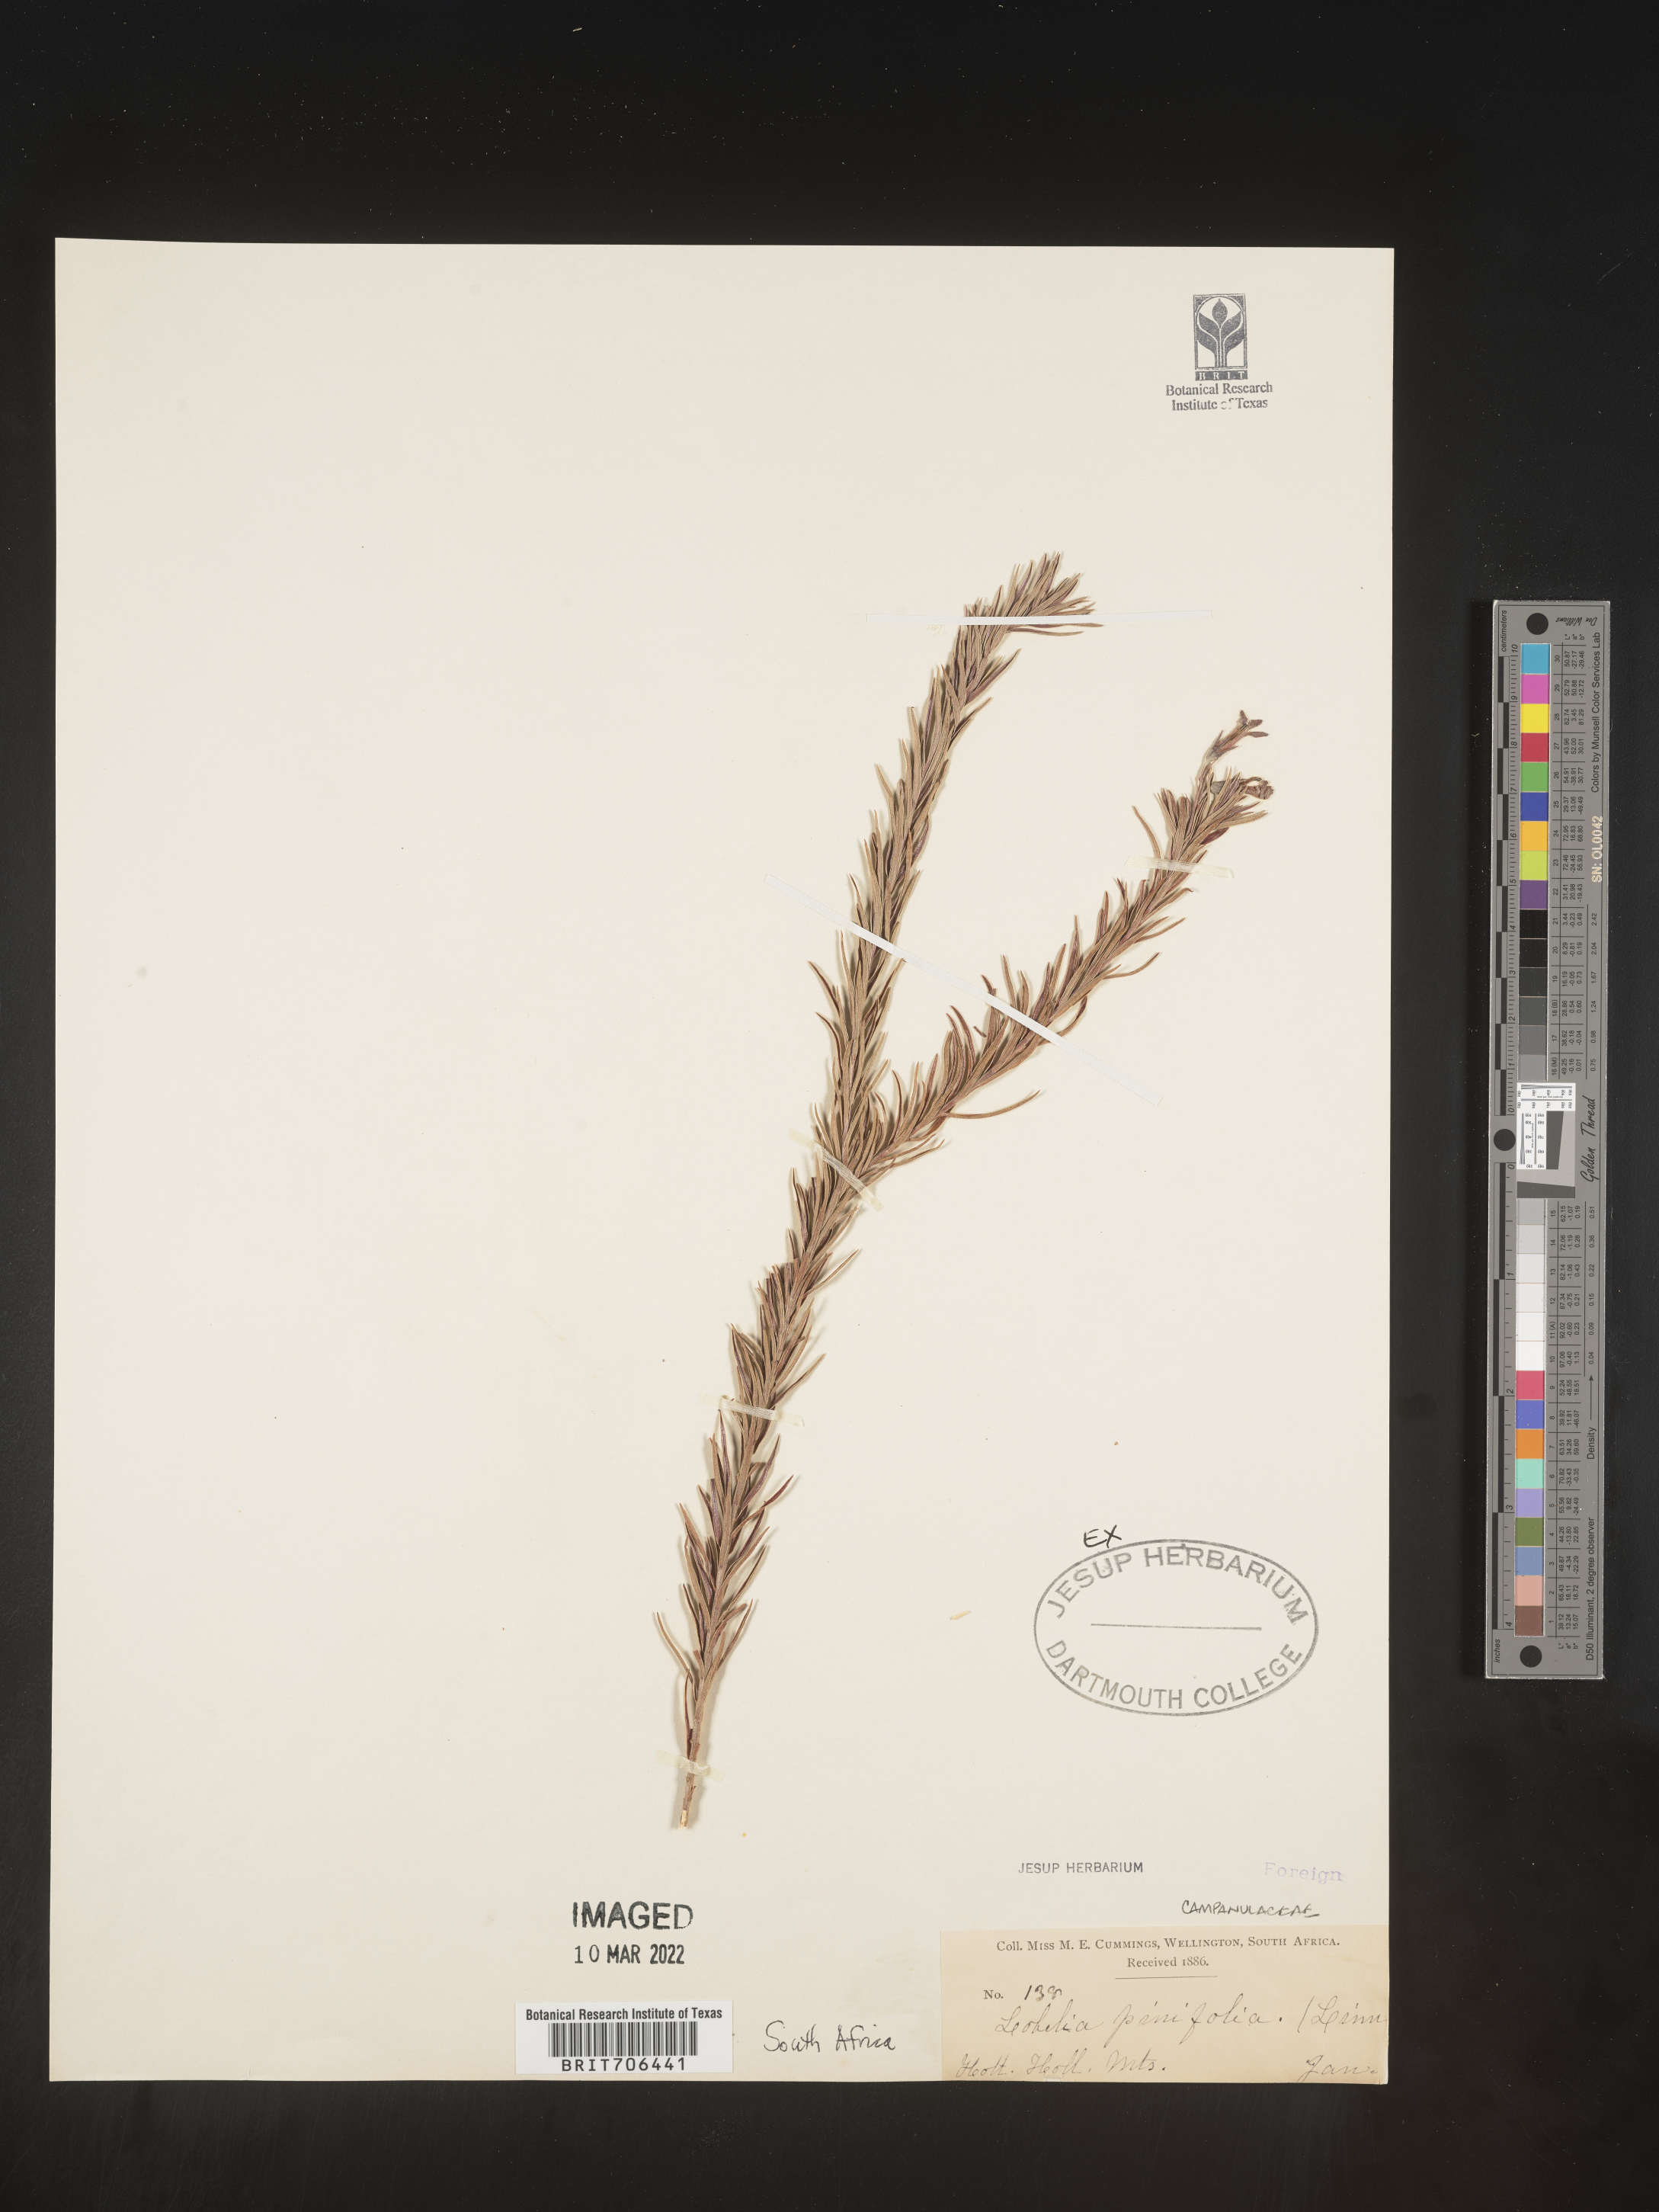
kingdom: Plantae
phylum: Tracheophyta
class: Magnoliopsida
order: Asterales
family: Campanulaceae
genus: Lobelia
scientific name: Lobelia
